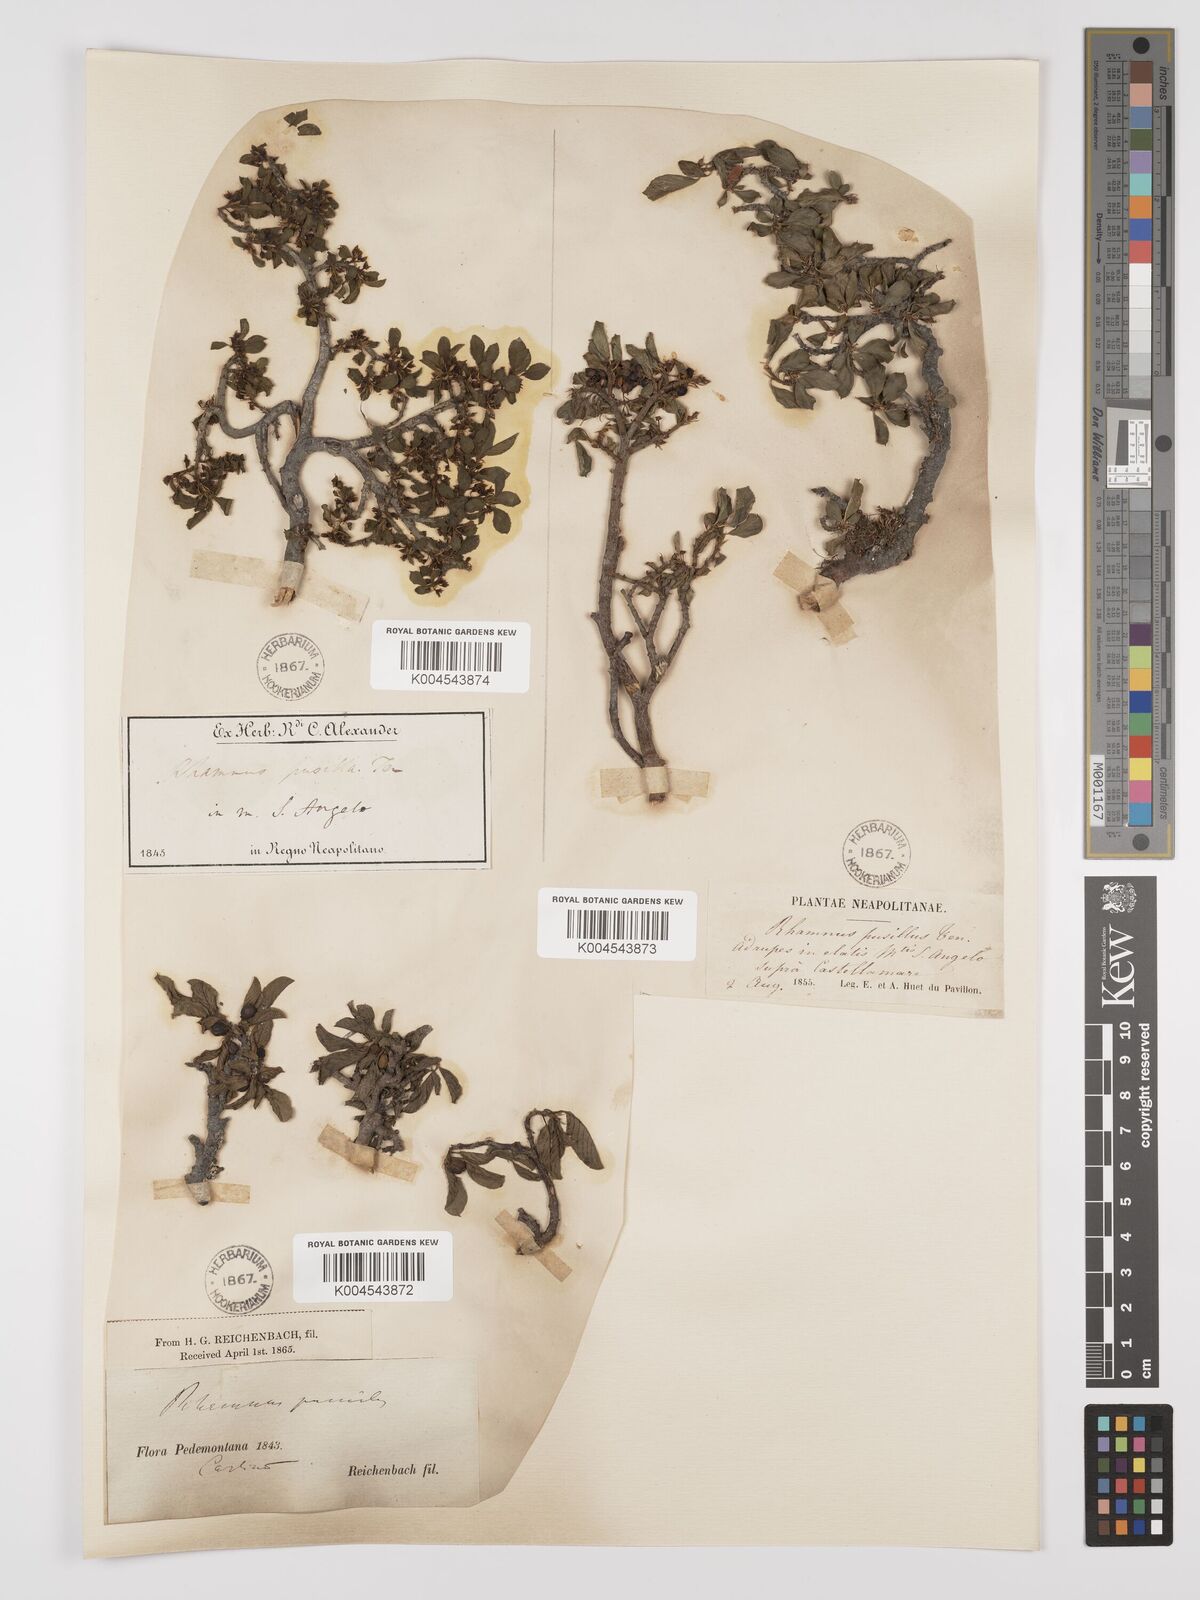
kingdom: Plantae
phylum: Tracheophyta
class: Magnoliopsida
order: Rosales
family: Rhamnaceae
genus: Rhamnus
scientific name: Rhamnus
